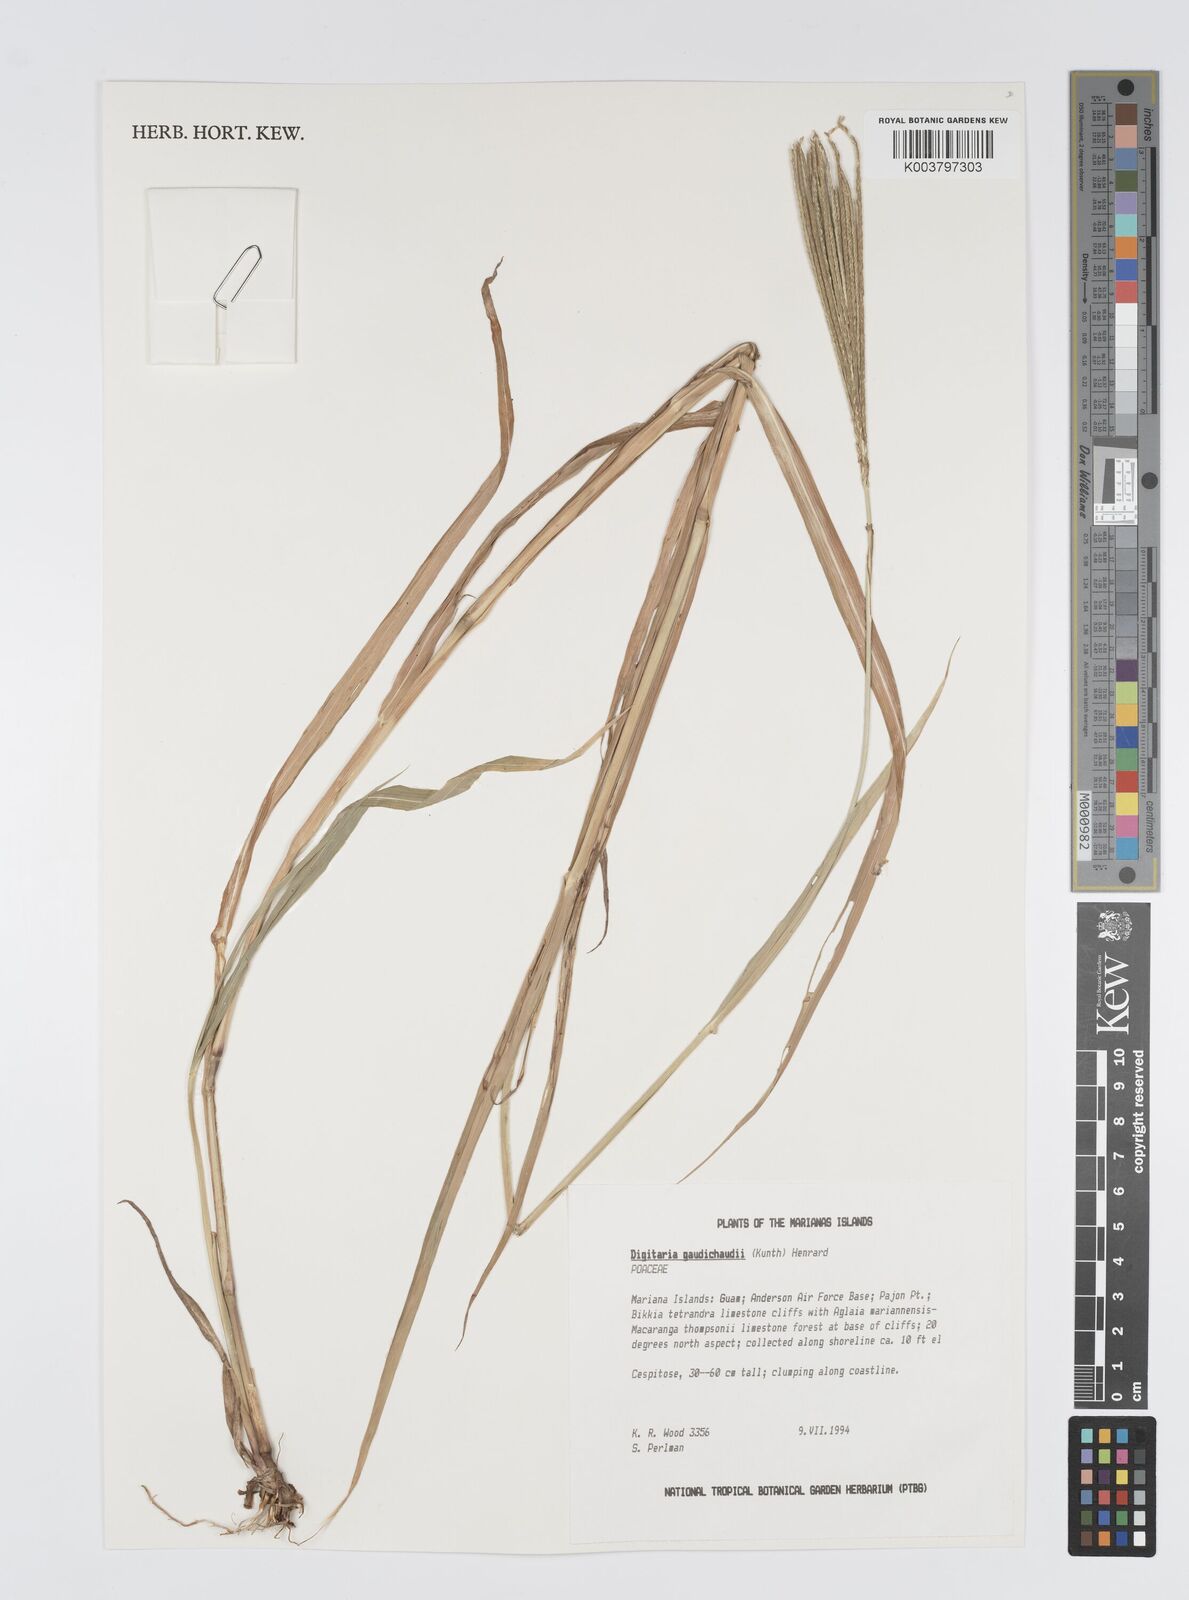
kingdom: Plantae
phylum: Tracheophyta
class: Liliopsida
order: Poales
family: Poaceae
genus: Digitaria
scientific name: Digitaria gaudichaudii
